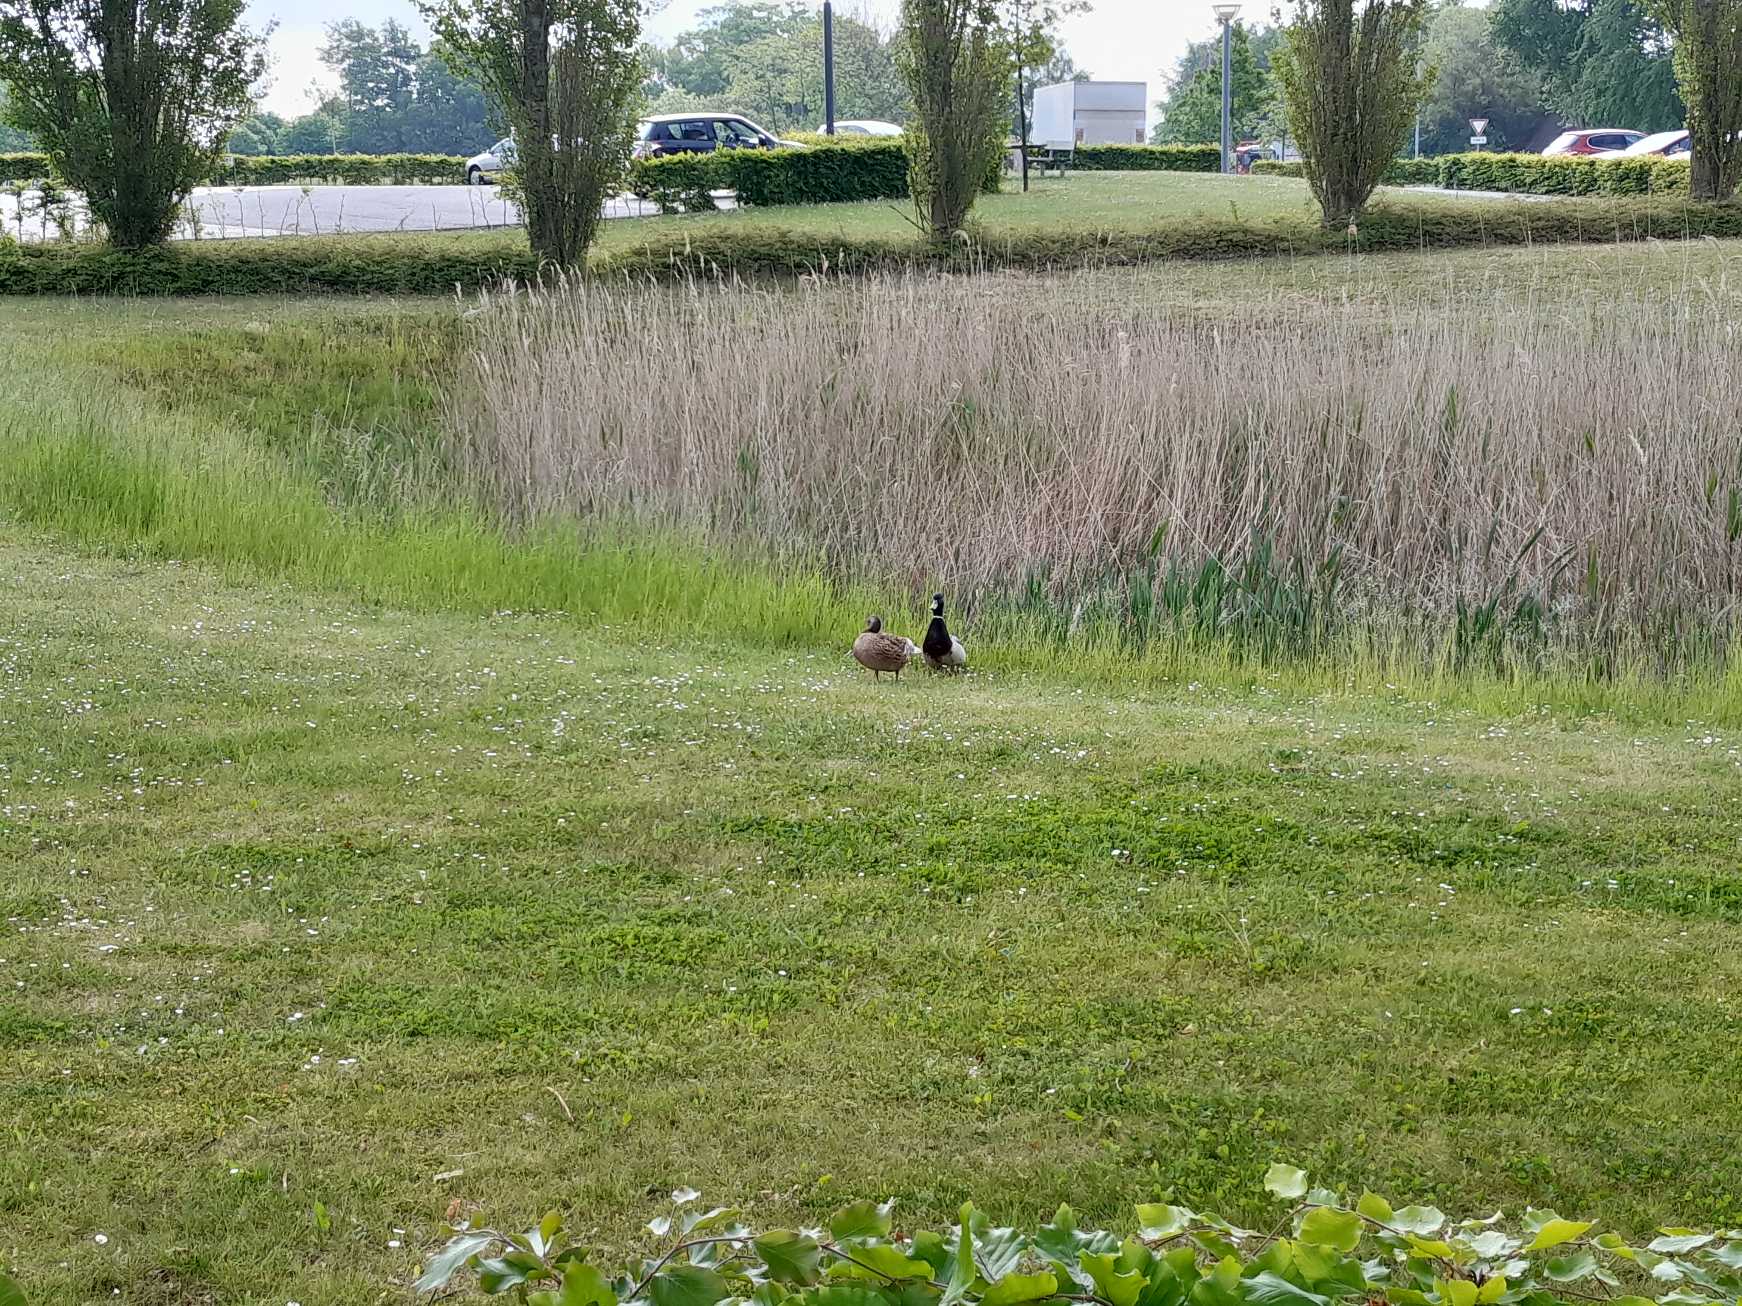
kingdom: Animalia
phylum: Chordata
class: Aves
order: Anseriformes
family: Anatidae
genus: Anas
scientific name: Anas platyrhynchos
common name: Gråand
